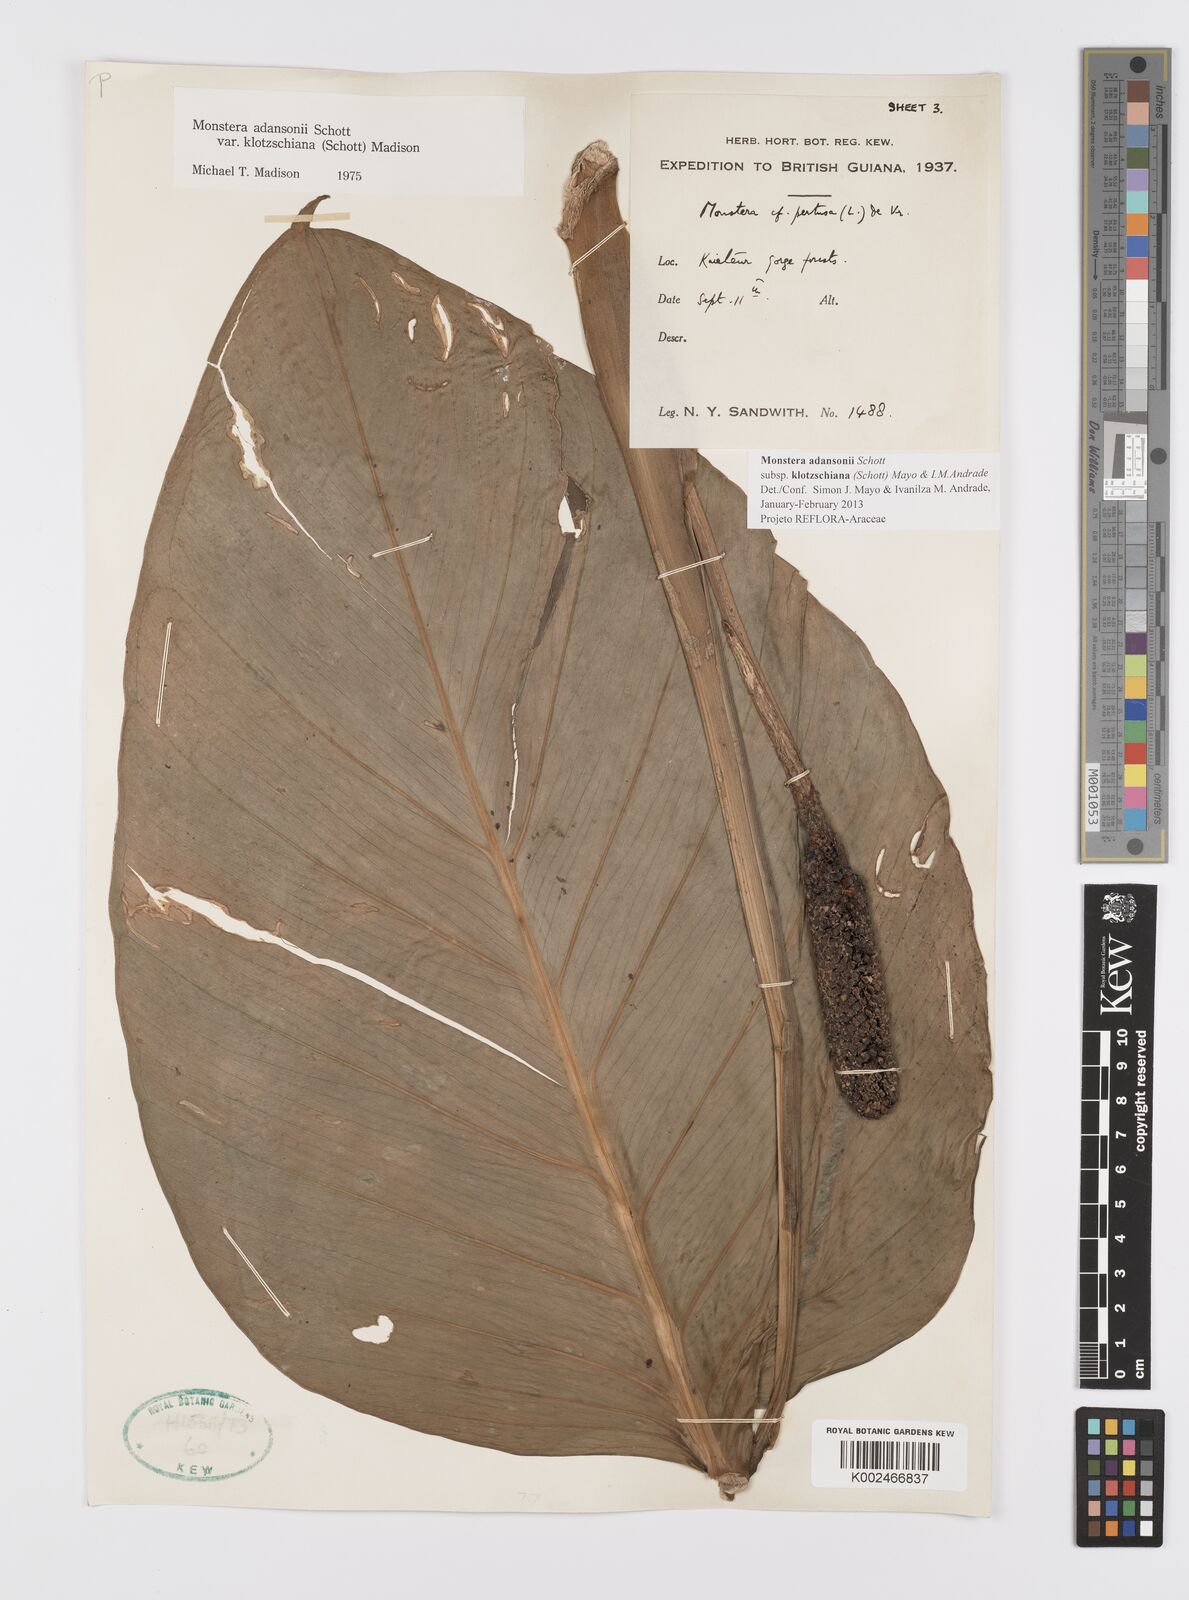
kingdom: Plantae
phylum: Tracheophyta
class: Liliopsida
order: Alismatales
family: Araceae
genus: Monstera
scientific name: Monstera adansonii
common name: Tarovine
